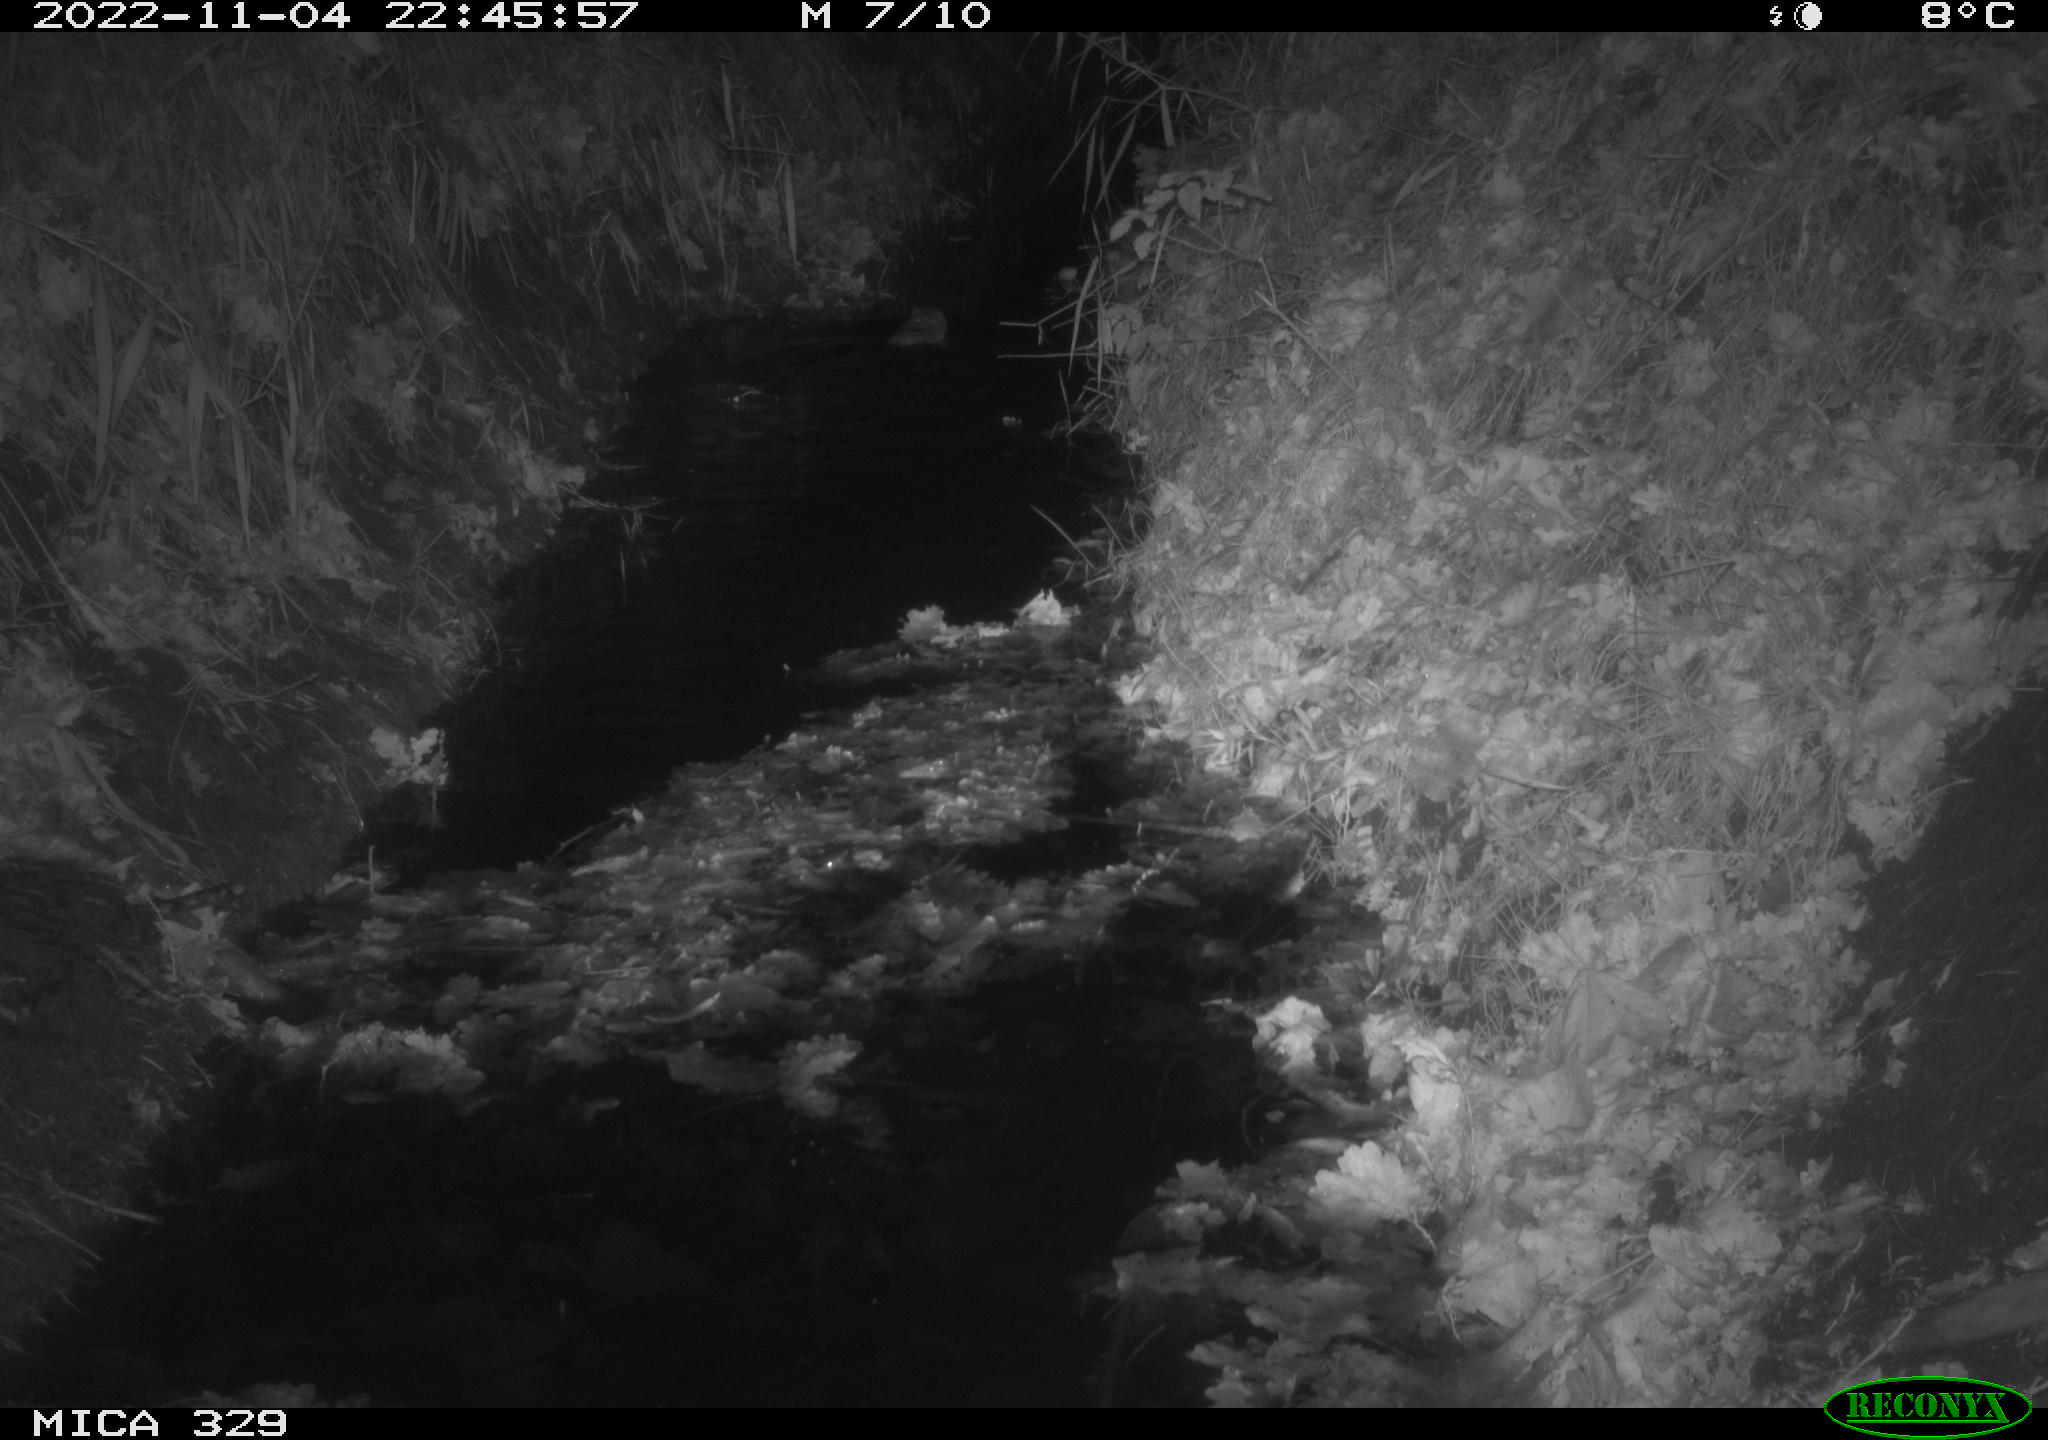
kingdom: Animalia
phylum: Chordata
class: Mammalia
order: Rodentia
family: Cricetidae
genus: Ondatra
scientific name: Ondatra zibethicus
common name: Muskrat
